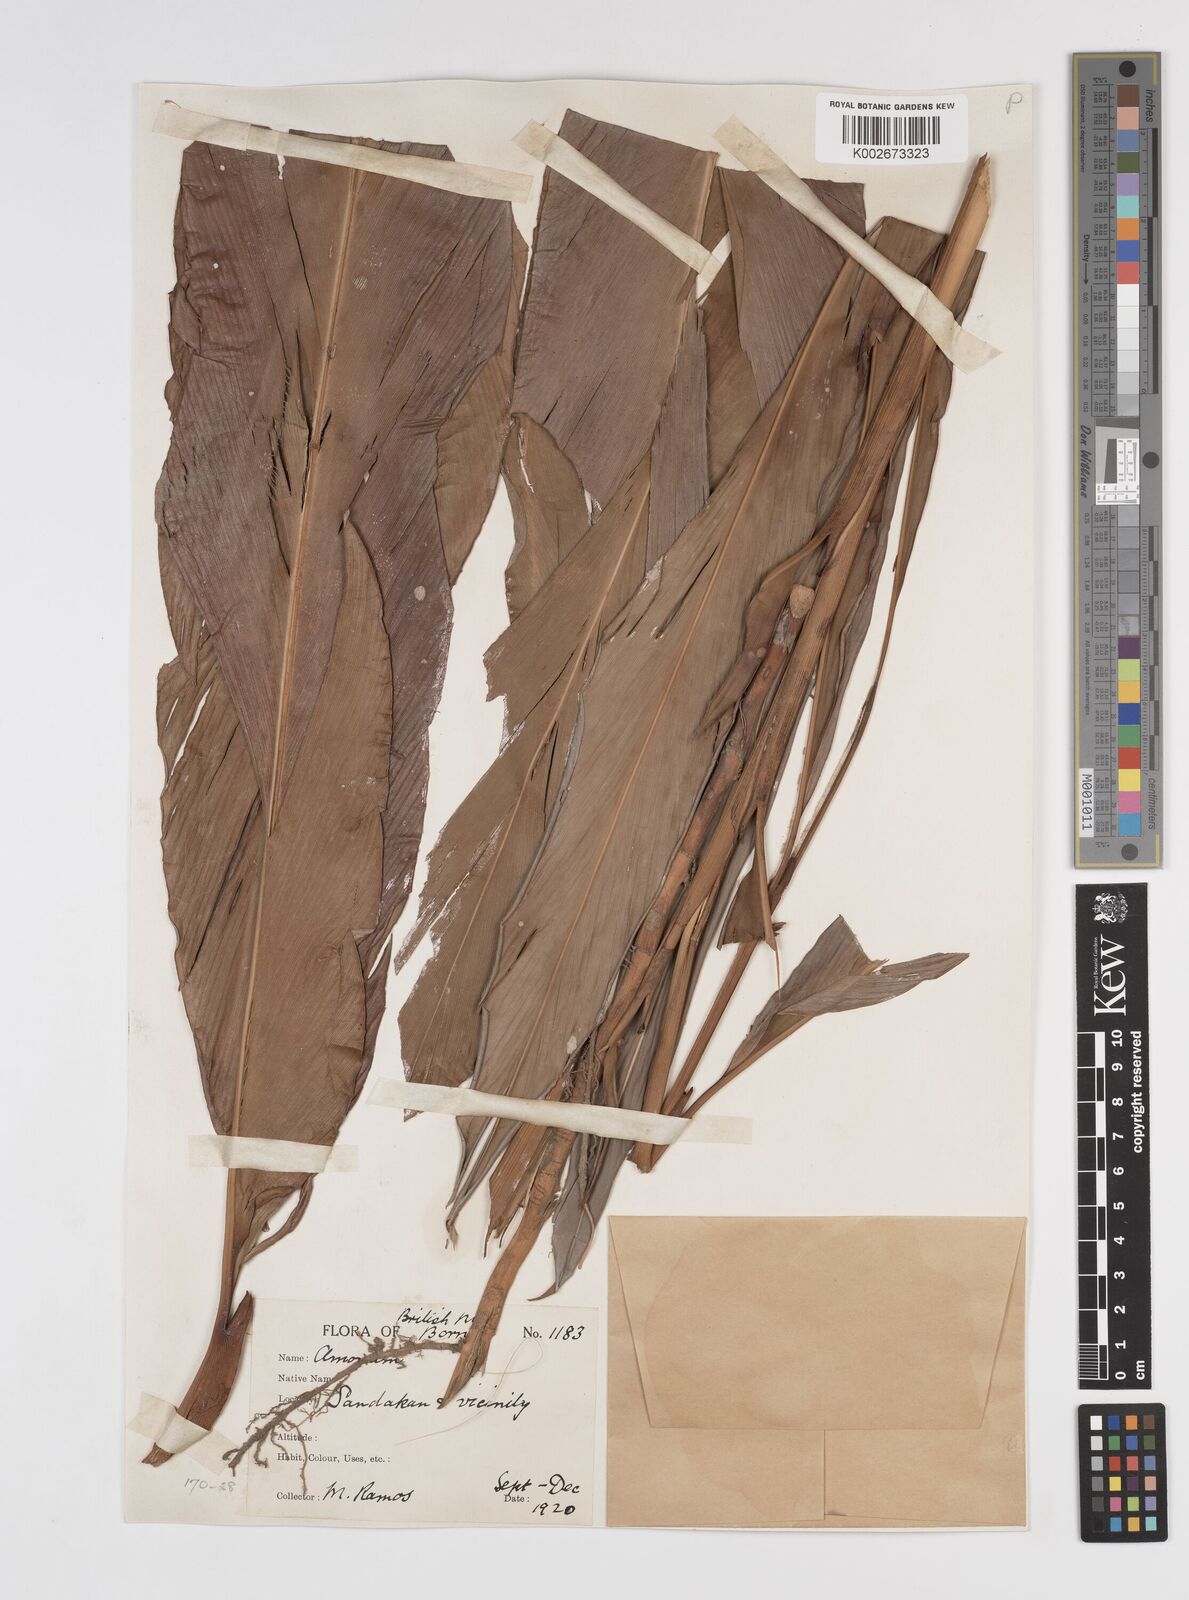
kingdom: Plantae
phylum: Tracheophyta
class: Liliopsida
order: Zingiberales
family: Zingiberaceae
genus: Sulettaria
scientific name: Sulettaria anomala
